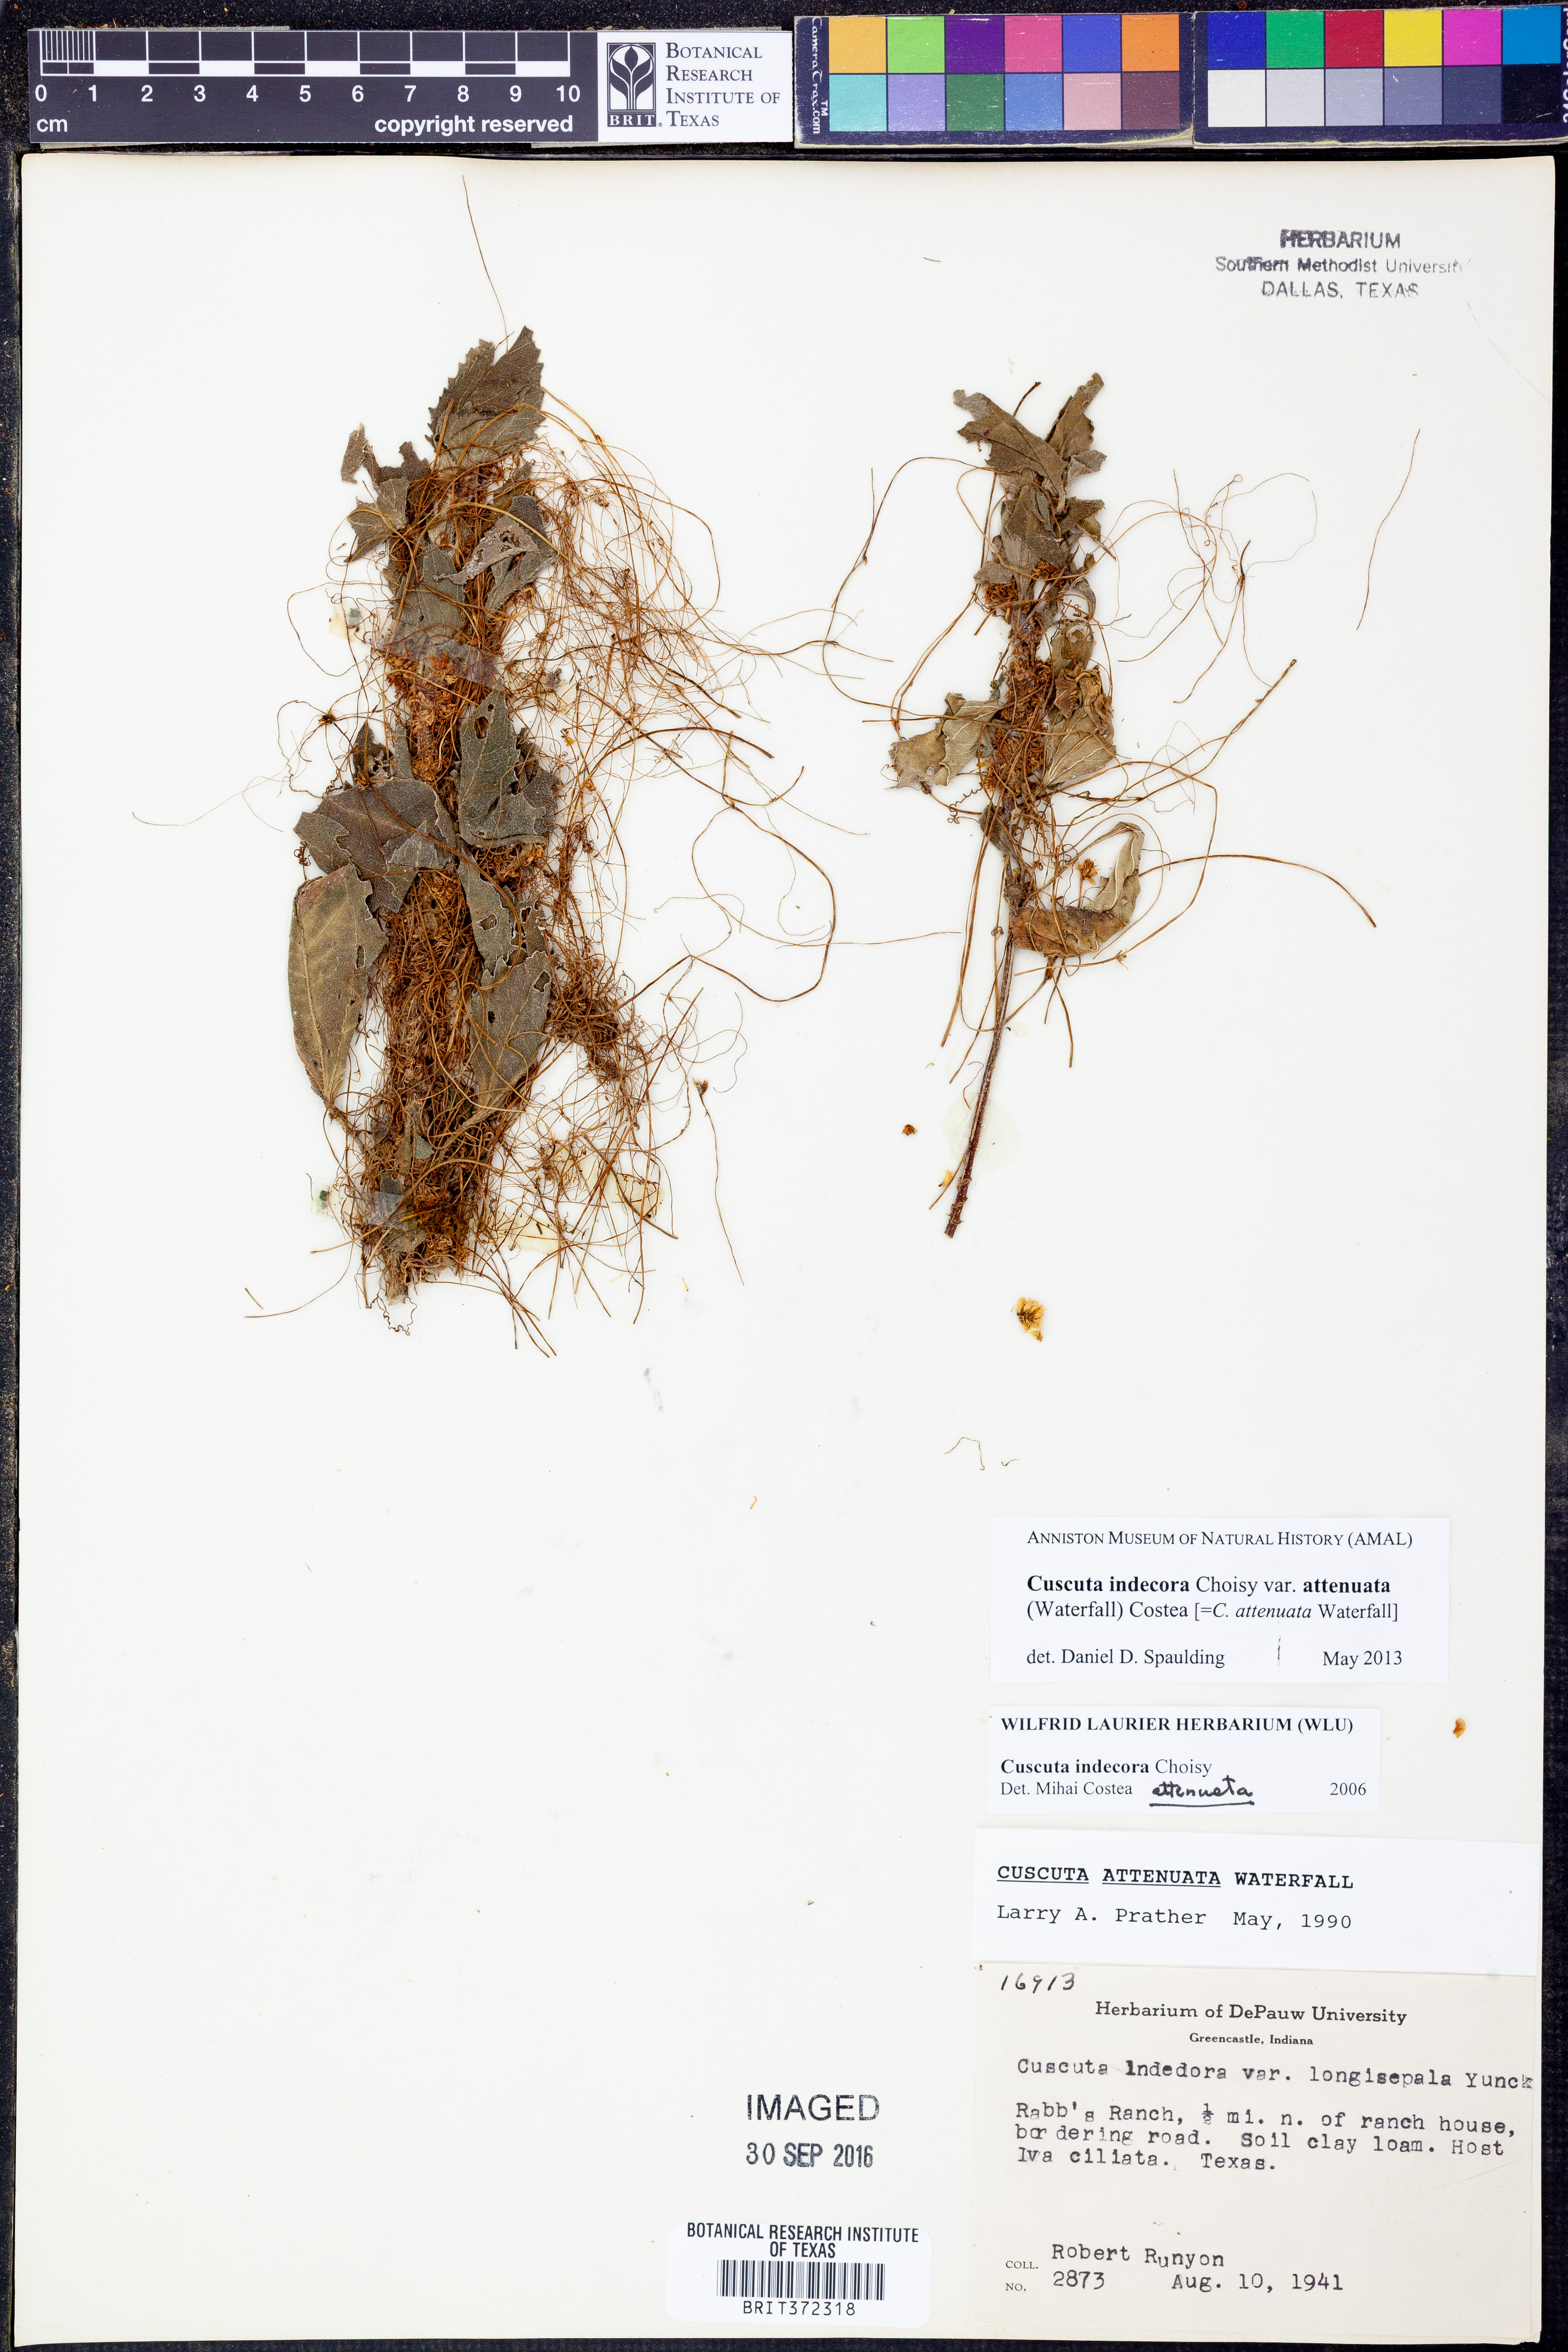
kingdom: Plantae
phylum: Tracheophyta
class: Magnoliopsida
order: Solanales
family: Convolvulaceae
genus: Cuscuta
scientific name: Cuscuta indecora
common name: Large-seed dodder
